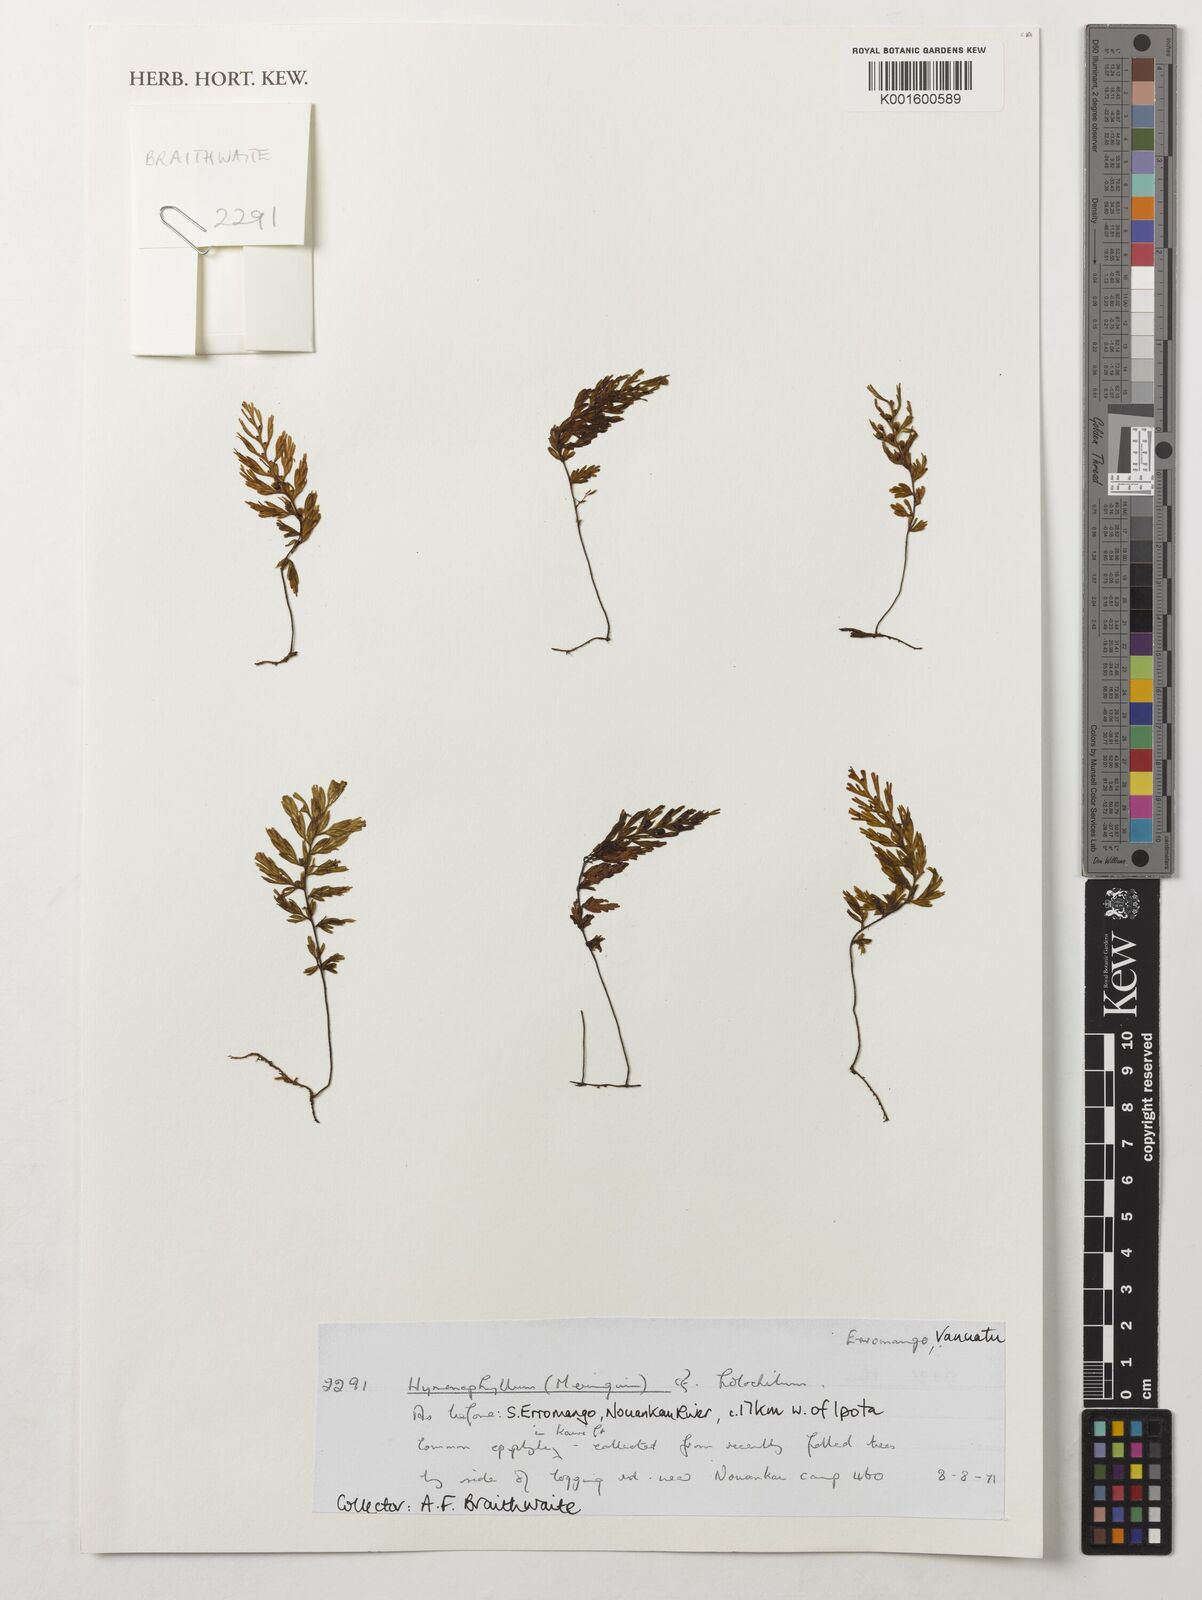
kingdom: Plantae
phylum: Tracheophyta
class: Polypodiopsida
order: Hymenophyllales
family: Hymenophyllaceae
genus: Hymenophyllum
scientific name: Hymenophyllum holochilum
